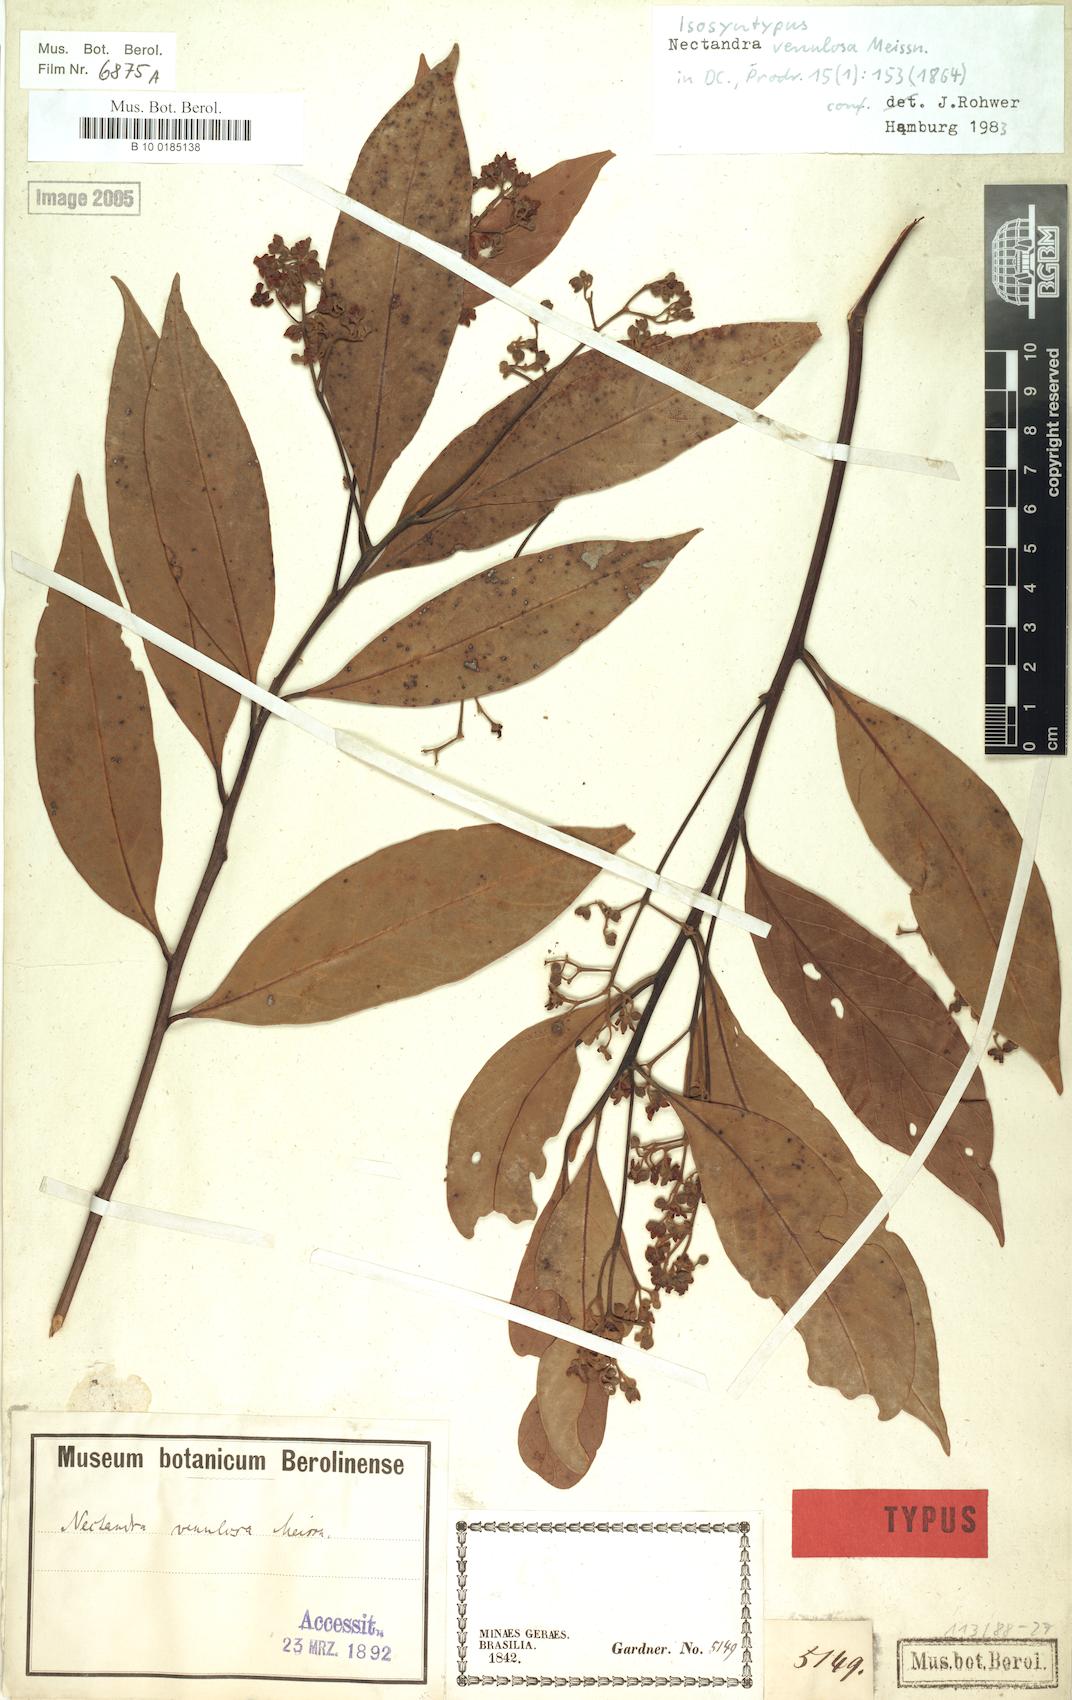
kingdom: Plantae
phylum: Tracheophyta
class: Magnoliopsida
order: Laurales
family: Lauraceae
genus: Nectandra
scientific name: Nectandra venulosa
